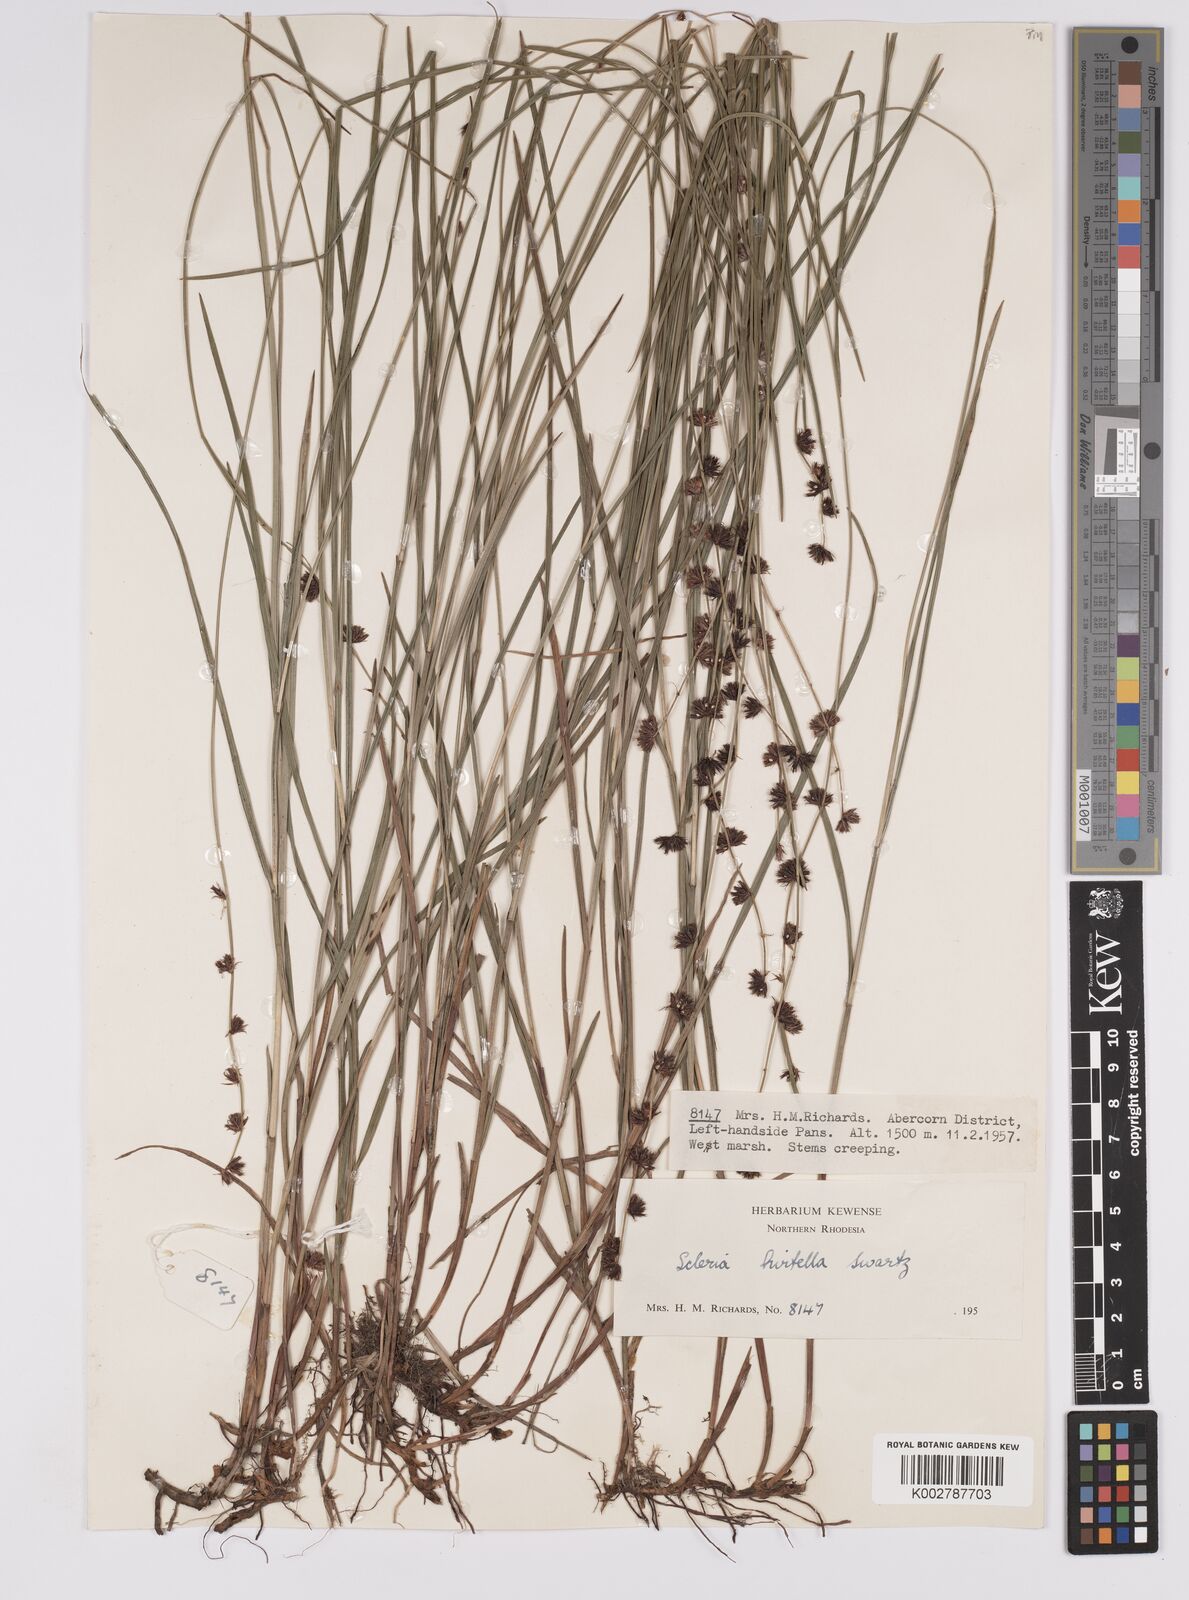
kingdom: Plantae
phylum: Tracheophyta
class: Liliopsida
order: Poales
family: Cyperaceae
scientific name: Cyperaceae
